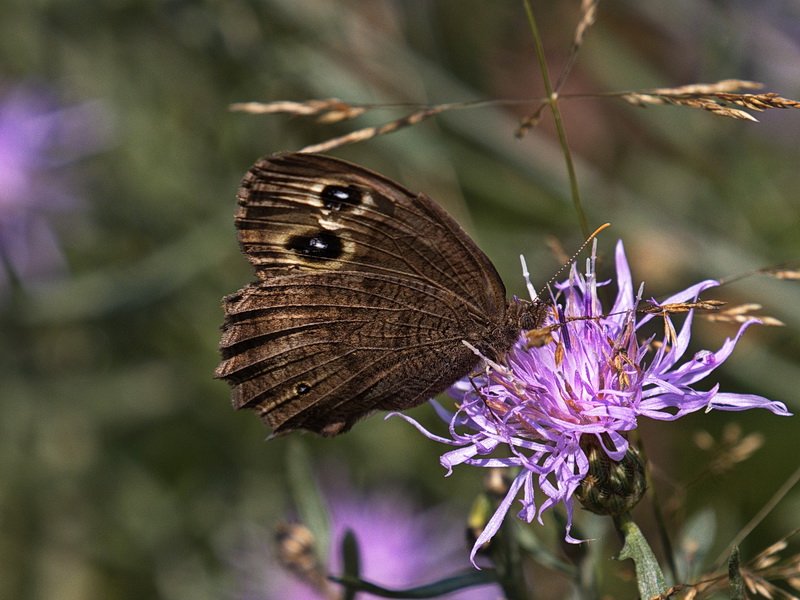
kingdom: Animalia
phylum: Arthropoda
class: Insecta
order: Lepidoptera
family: Nymphalidae
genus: Cercyonis
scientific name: Cercyonis pegala
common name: Common Wood-Nymph
